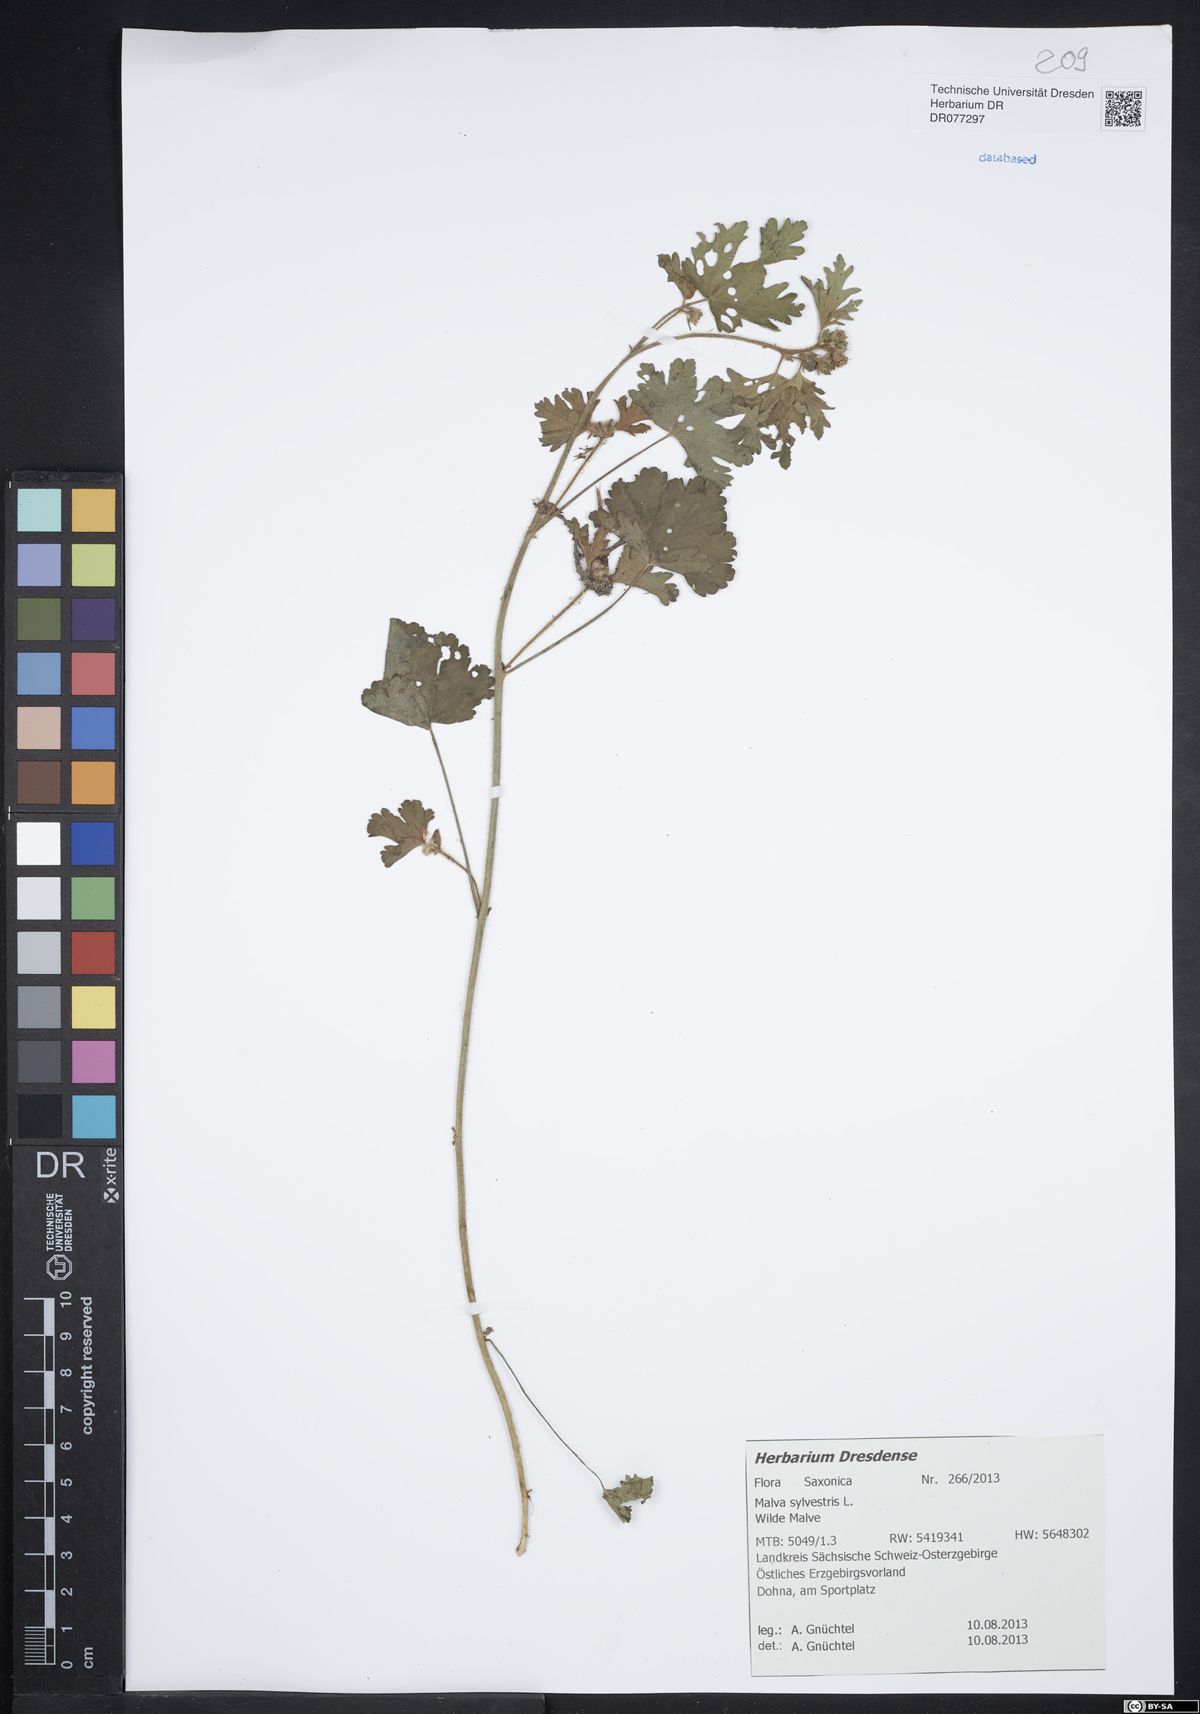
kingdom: Plantae
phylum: Tracheophyta
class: Magnoliopsida
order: Malvales
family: Malvaceae
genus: Malva
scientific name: Malva sylvestris
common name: Common mallow
